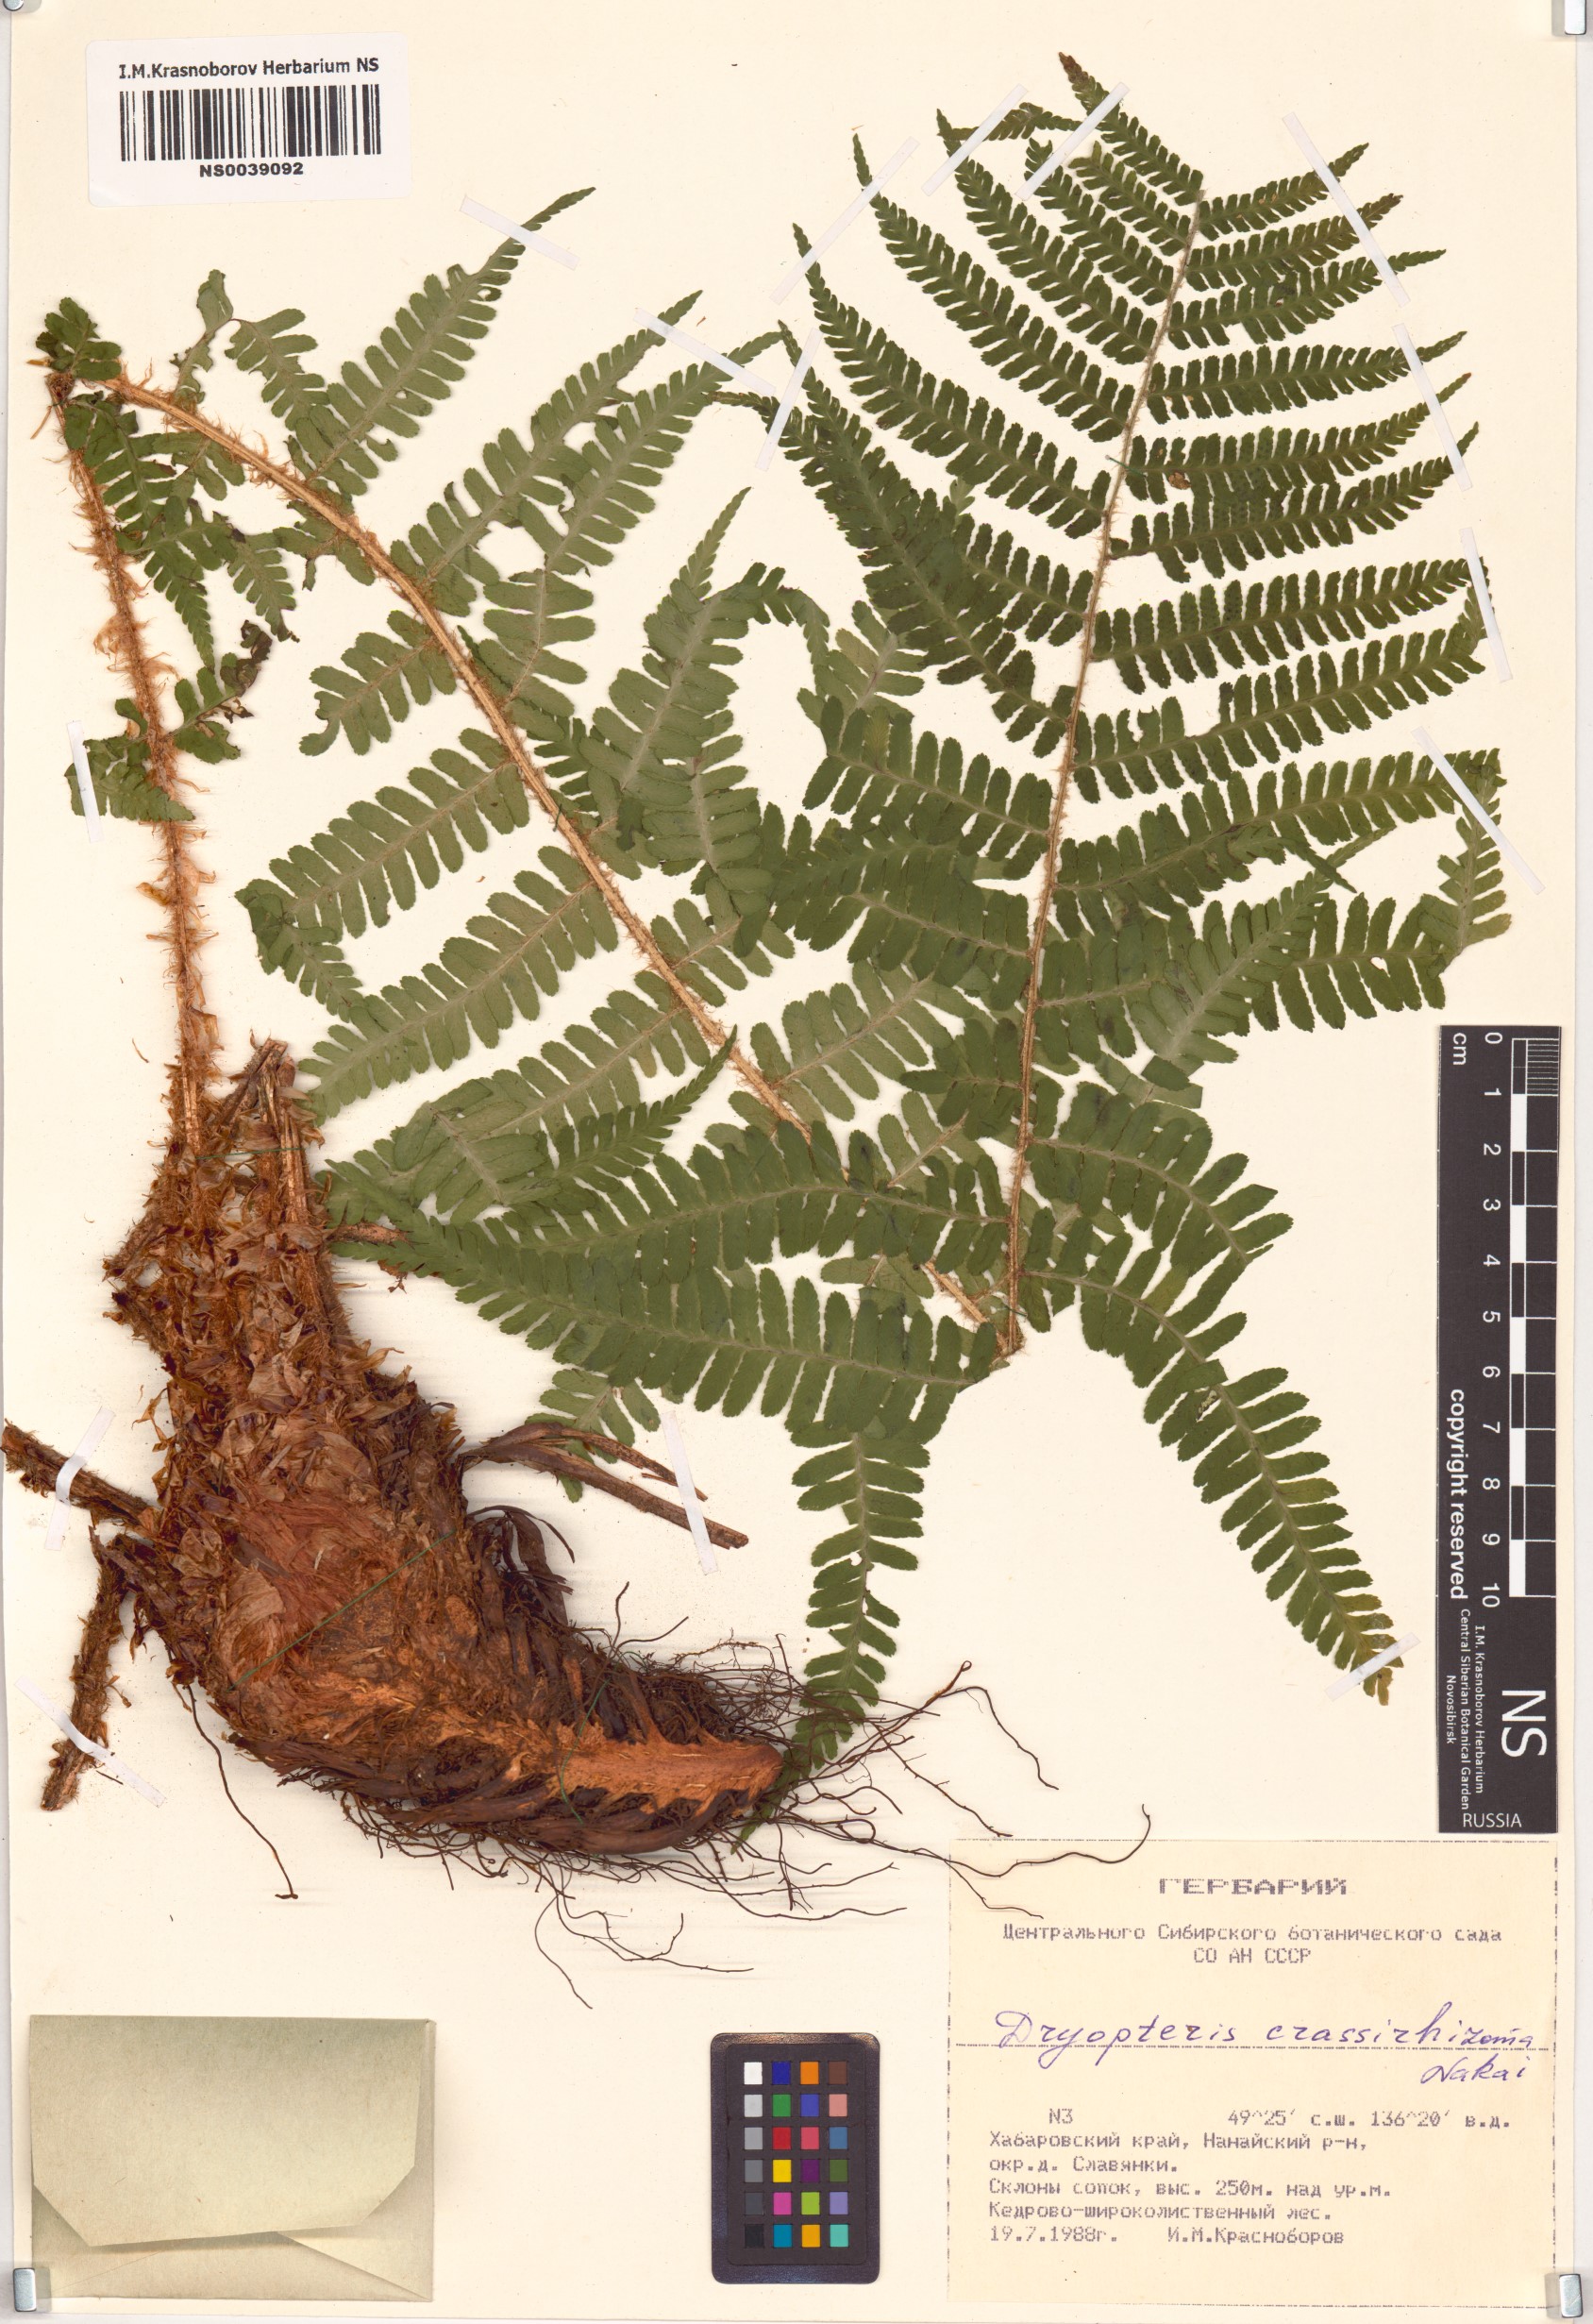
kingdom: Plantae
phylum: Tracheophyta
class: Polypodiopsida
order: Polypodiales
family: Dryopteridaceae
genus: Dryopteris
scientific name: Dryopteris crassirhizoma
